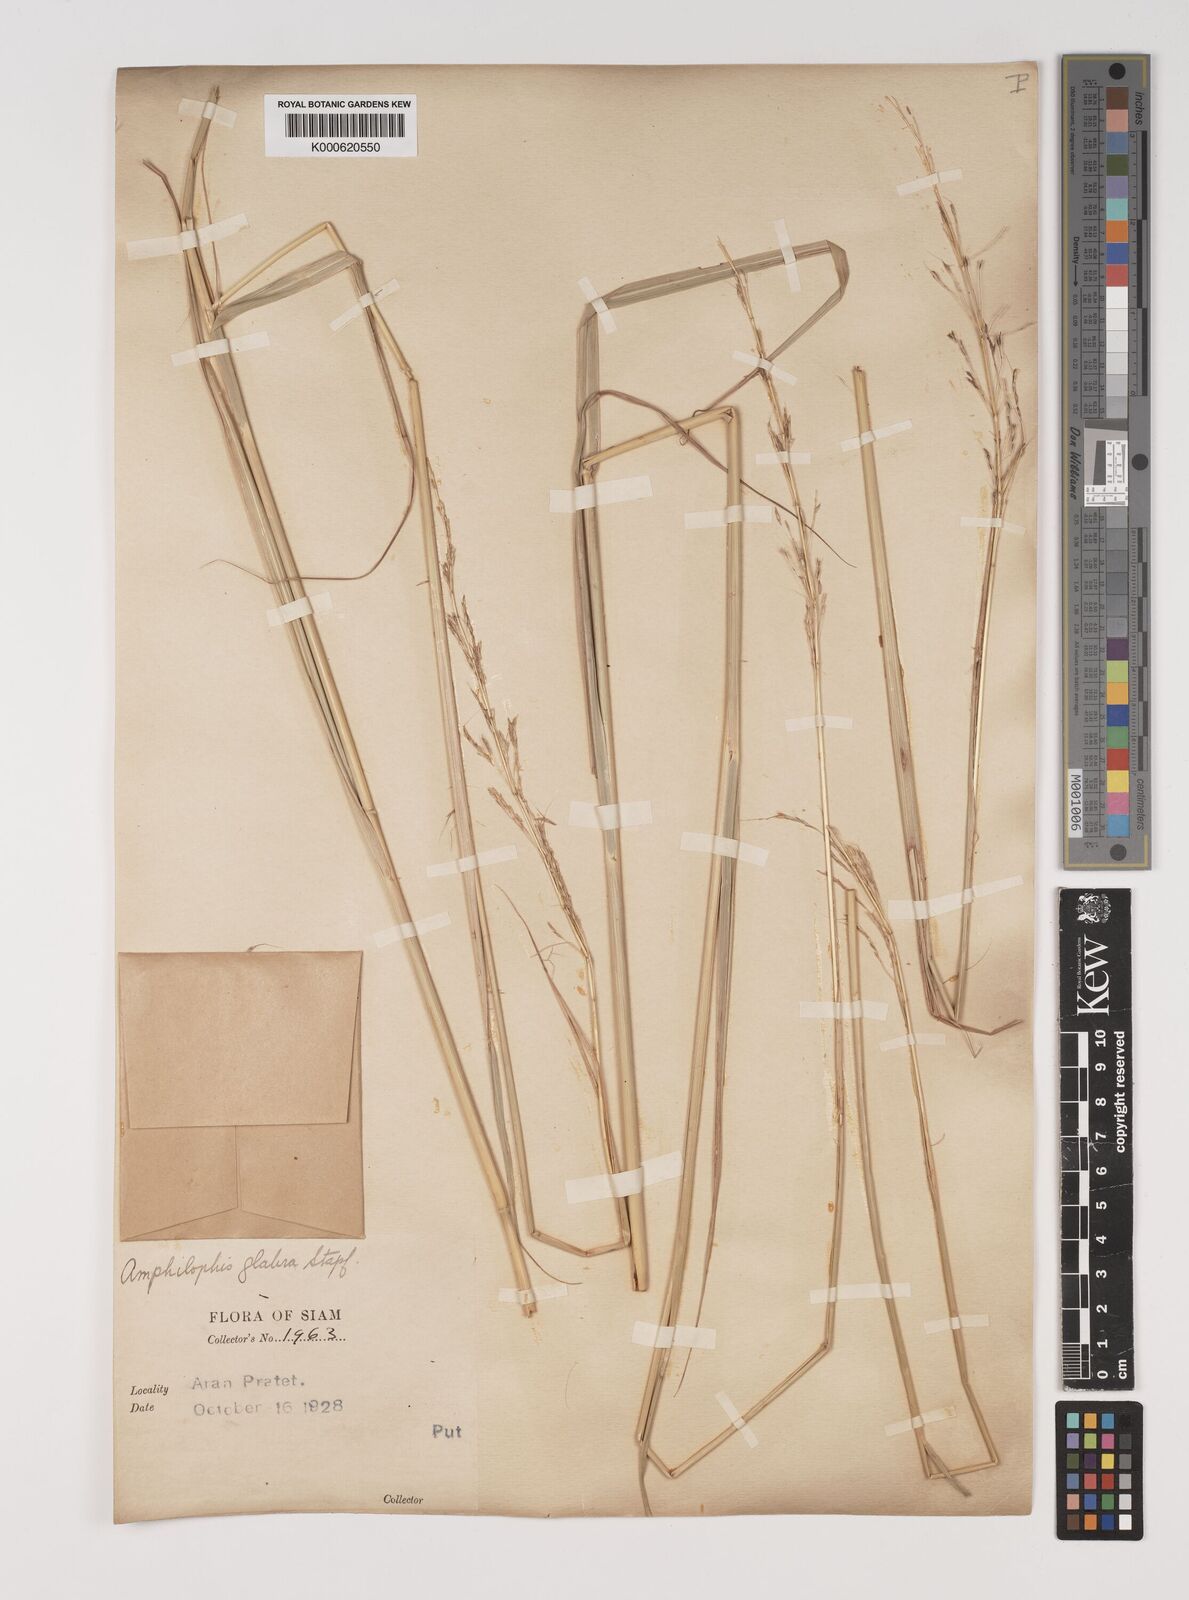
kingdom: Plantae
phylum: Tracheophyta
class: Liliopsida
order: Poales
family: Poaceae
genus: Bothriochloa
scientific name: Bothriochloa bladhii
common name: Caucasian bluestem
